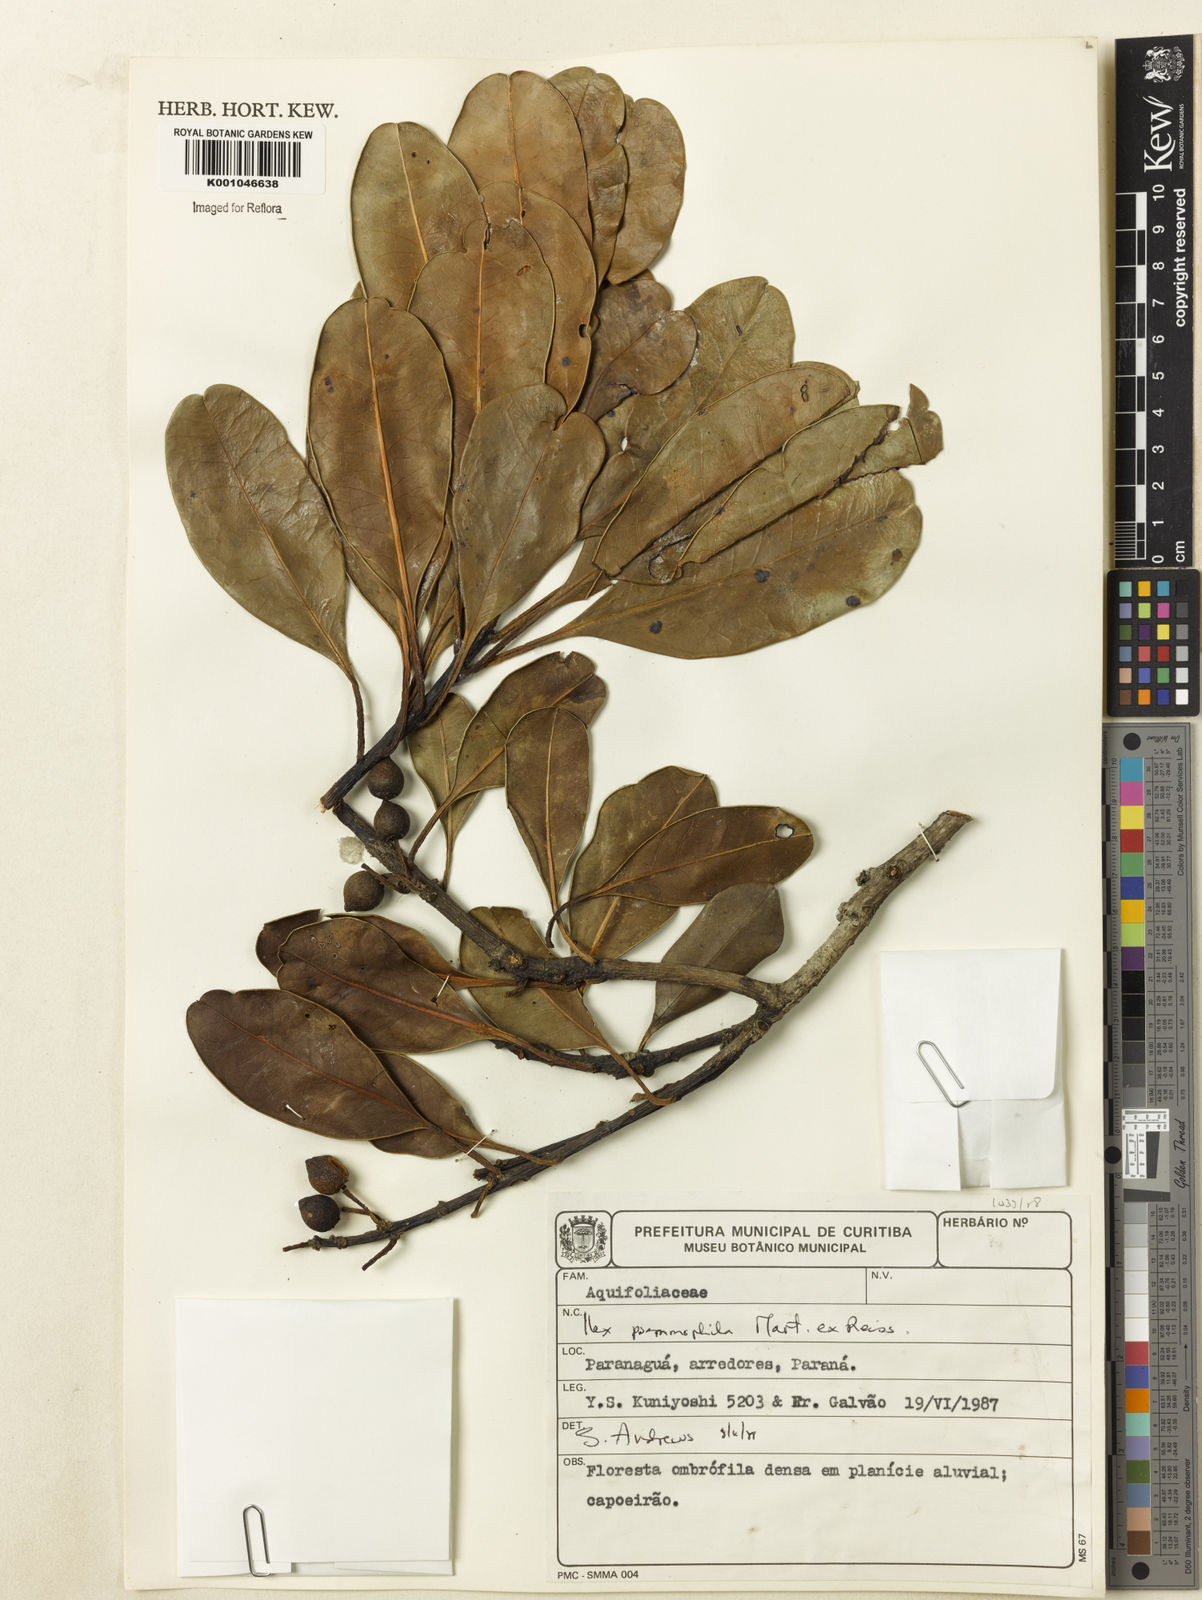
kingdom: Plantae
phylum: Tracheophyta
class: Magnoliopsida
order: Aquifoliales
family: Aquifoliaceae
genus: Ilex
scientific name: Ilex psammophila
